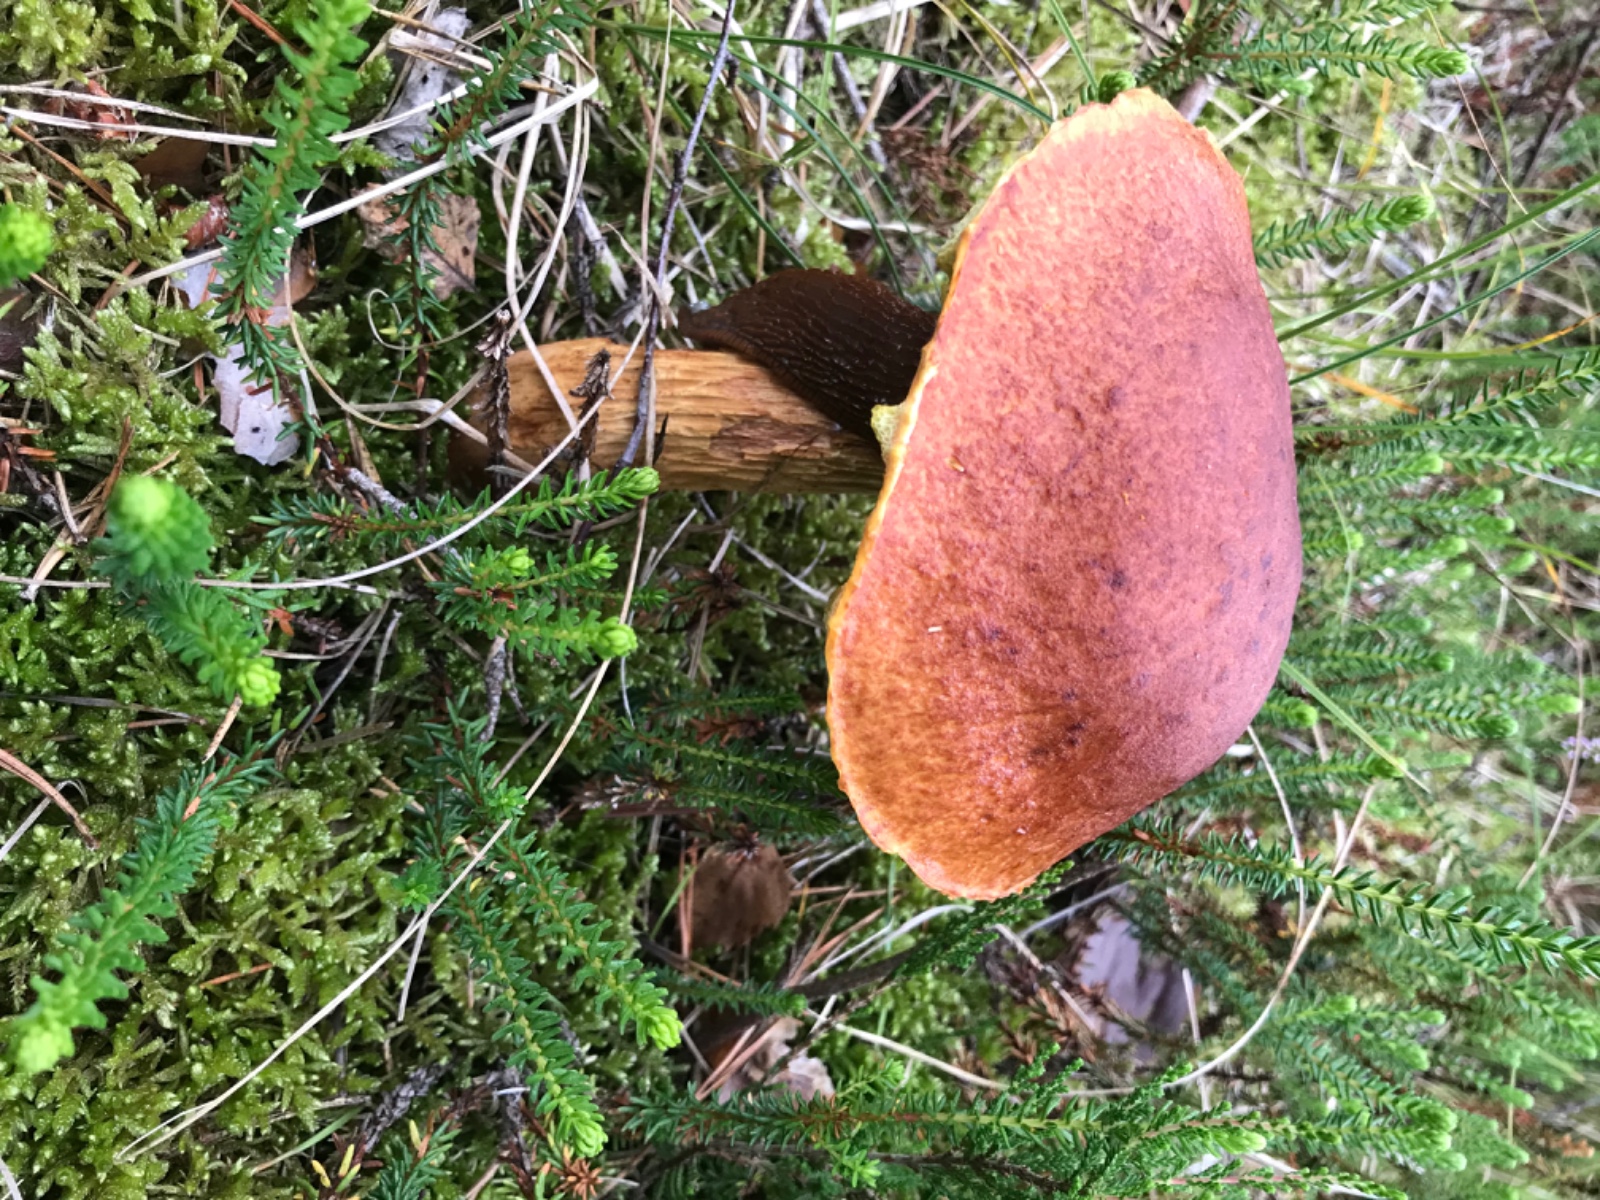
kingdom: Fungi
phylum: Basidiomycota
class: Agaricomycetes
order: Boletales
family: Boletaceae
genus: Aureoboletus
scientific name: Aureoboletus projectellus
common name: ribbestokket rørhat
